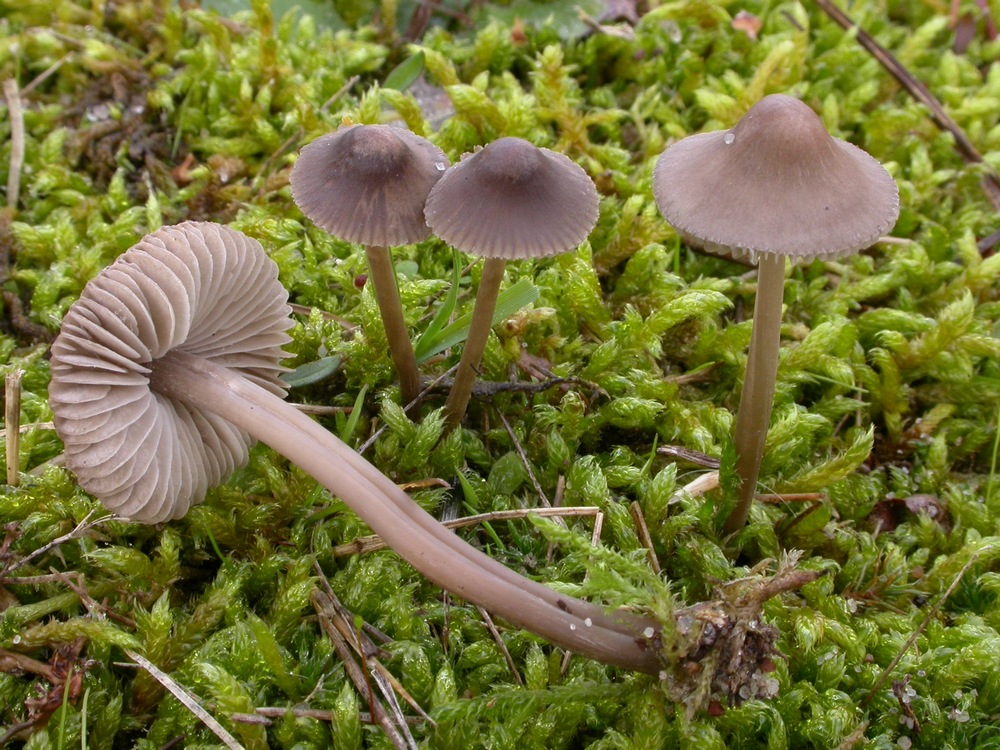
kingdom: Fungi
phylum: Basidiomycota
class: Agaricomycetes
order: Agaricales
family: Mycenaceae
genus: Mycena
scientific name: Mycena metata
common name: rødlig huesvamp
